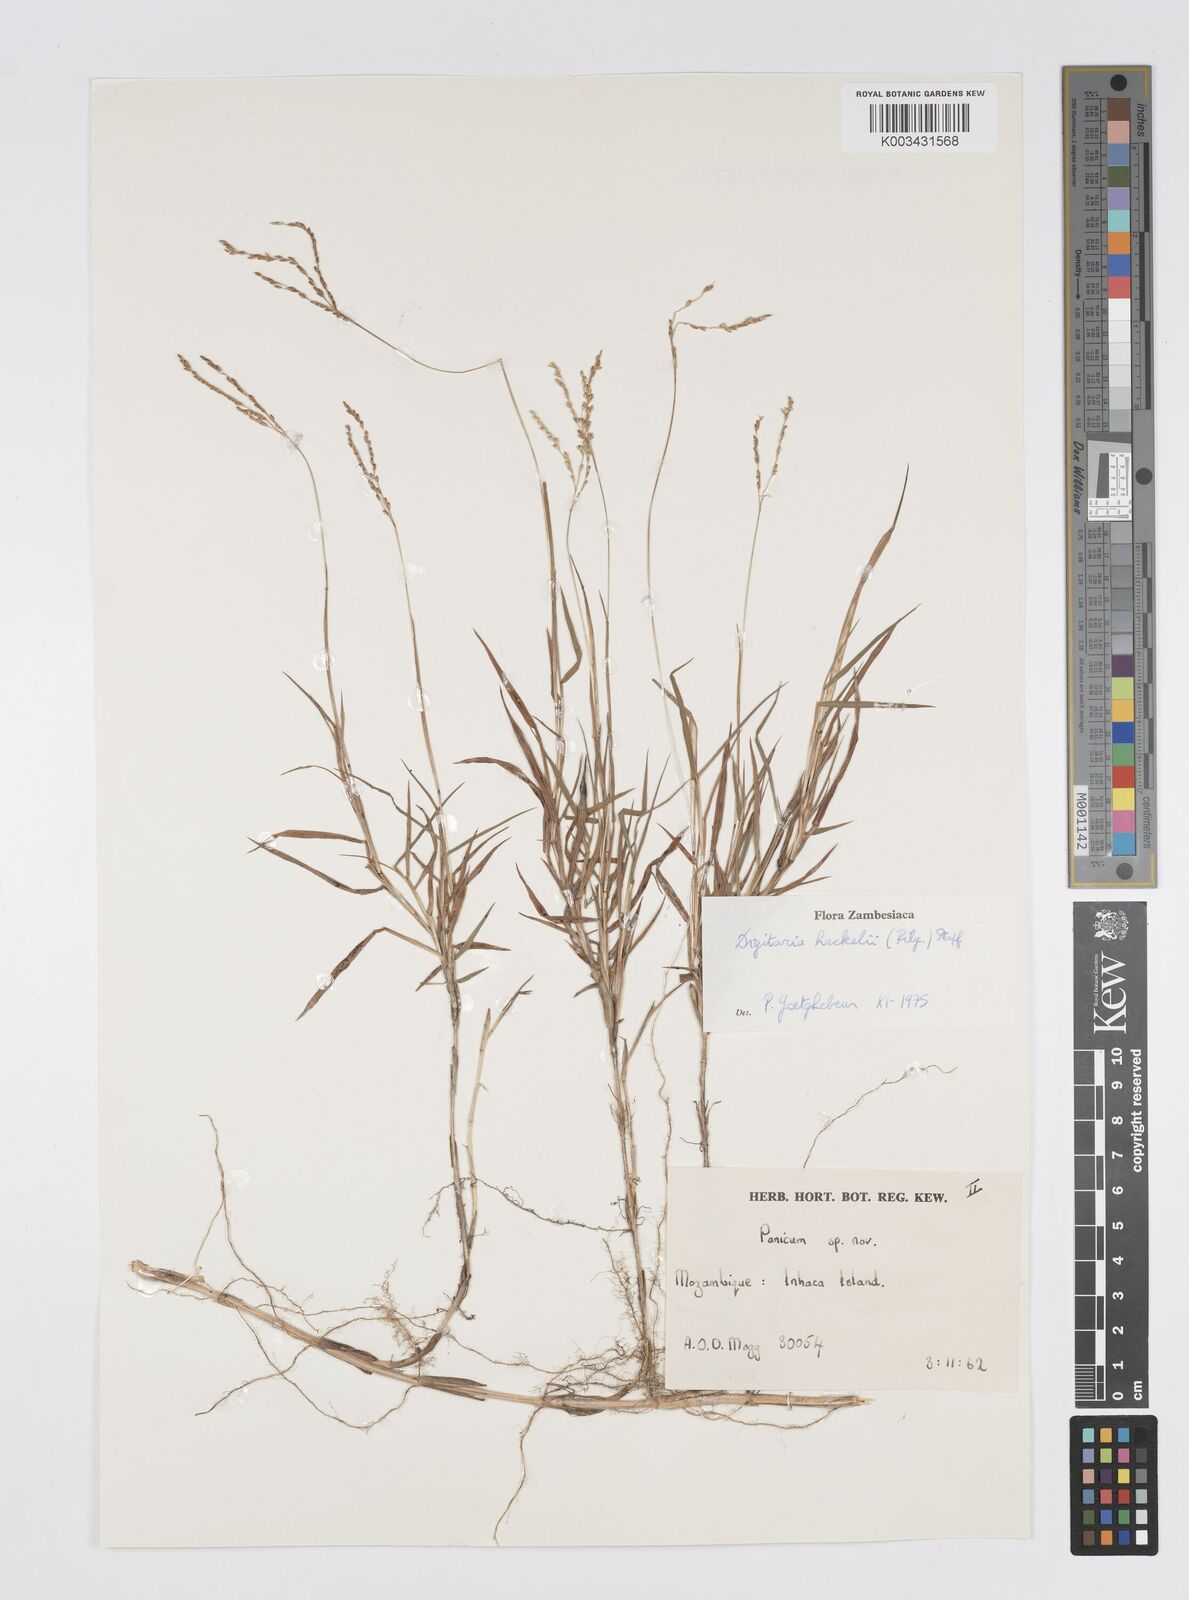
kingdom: Plantae
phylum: Tracheophyta
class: Liliopsida
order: Poales
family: Poaceae
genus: Digitaria
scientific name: Digitaria abyssinica
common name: African couchgrass
